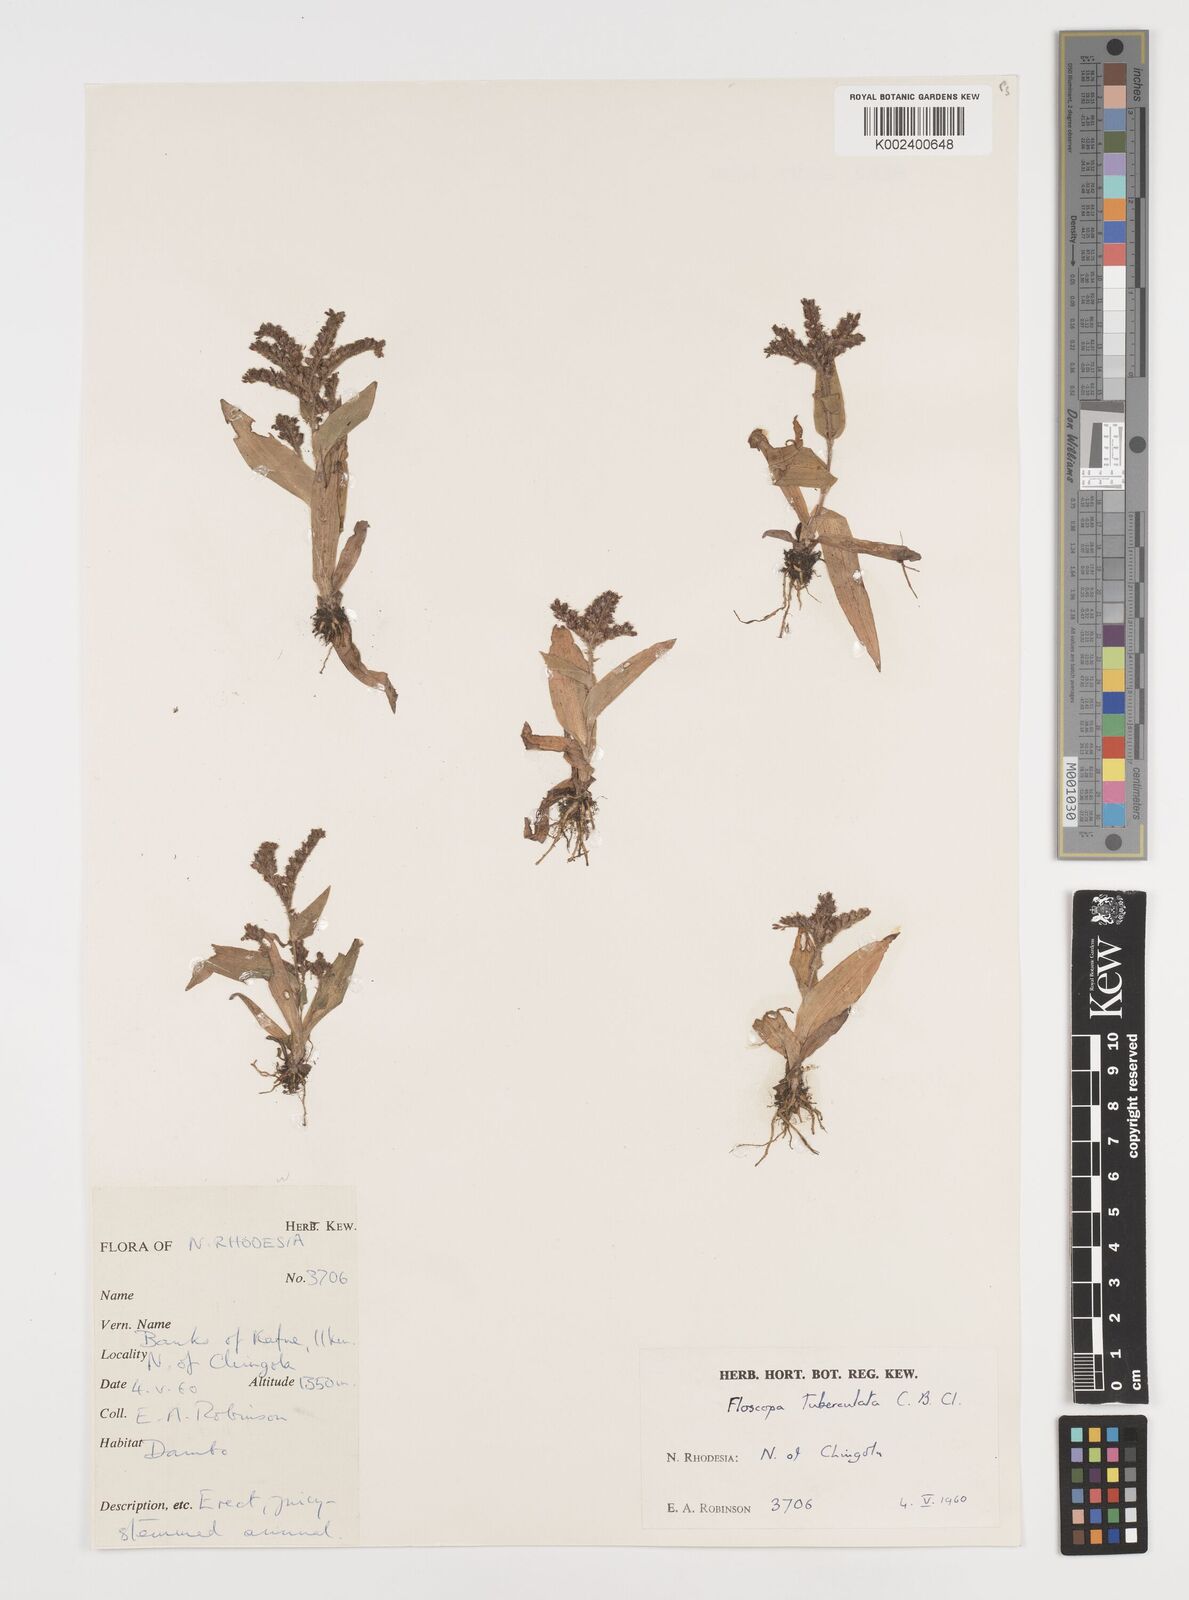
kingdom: Plantae
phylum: Tracheophyta
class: Liliopsida
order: Commelinales
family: Commelinaceae
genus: Floscopa
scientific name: Floscopa tuberculata
